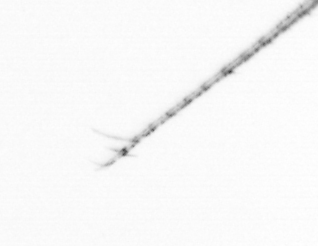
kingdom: Chromista
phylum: Ochrophyta
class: Bacillariophyceae
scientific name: Bacillariophyceae
